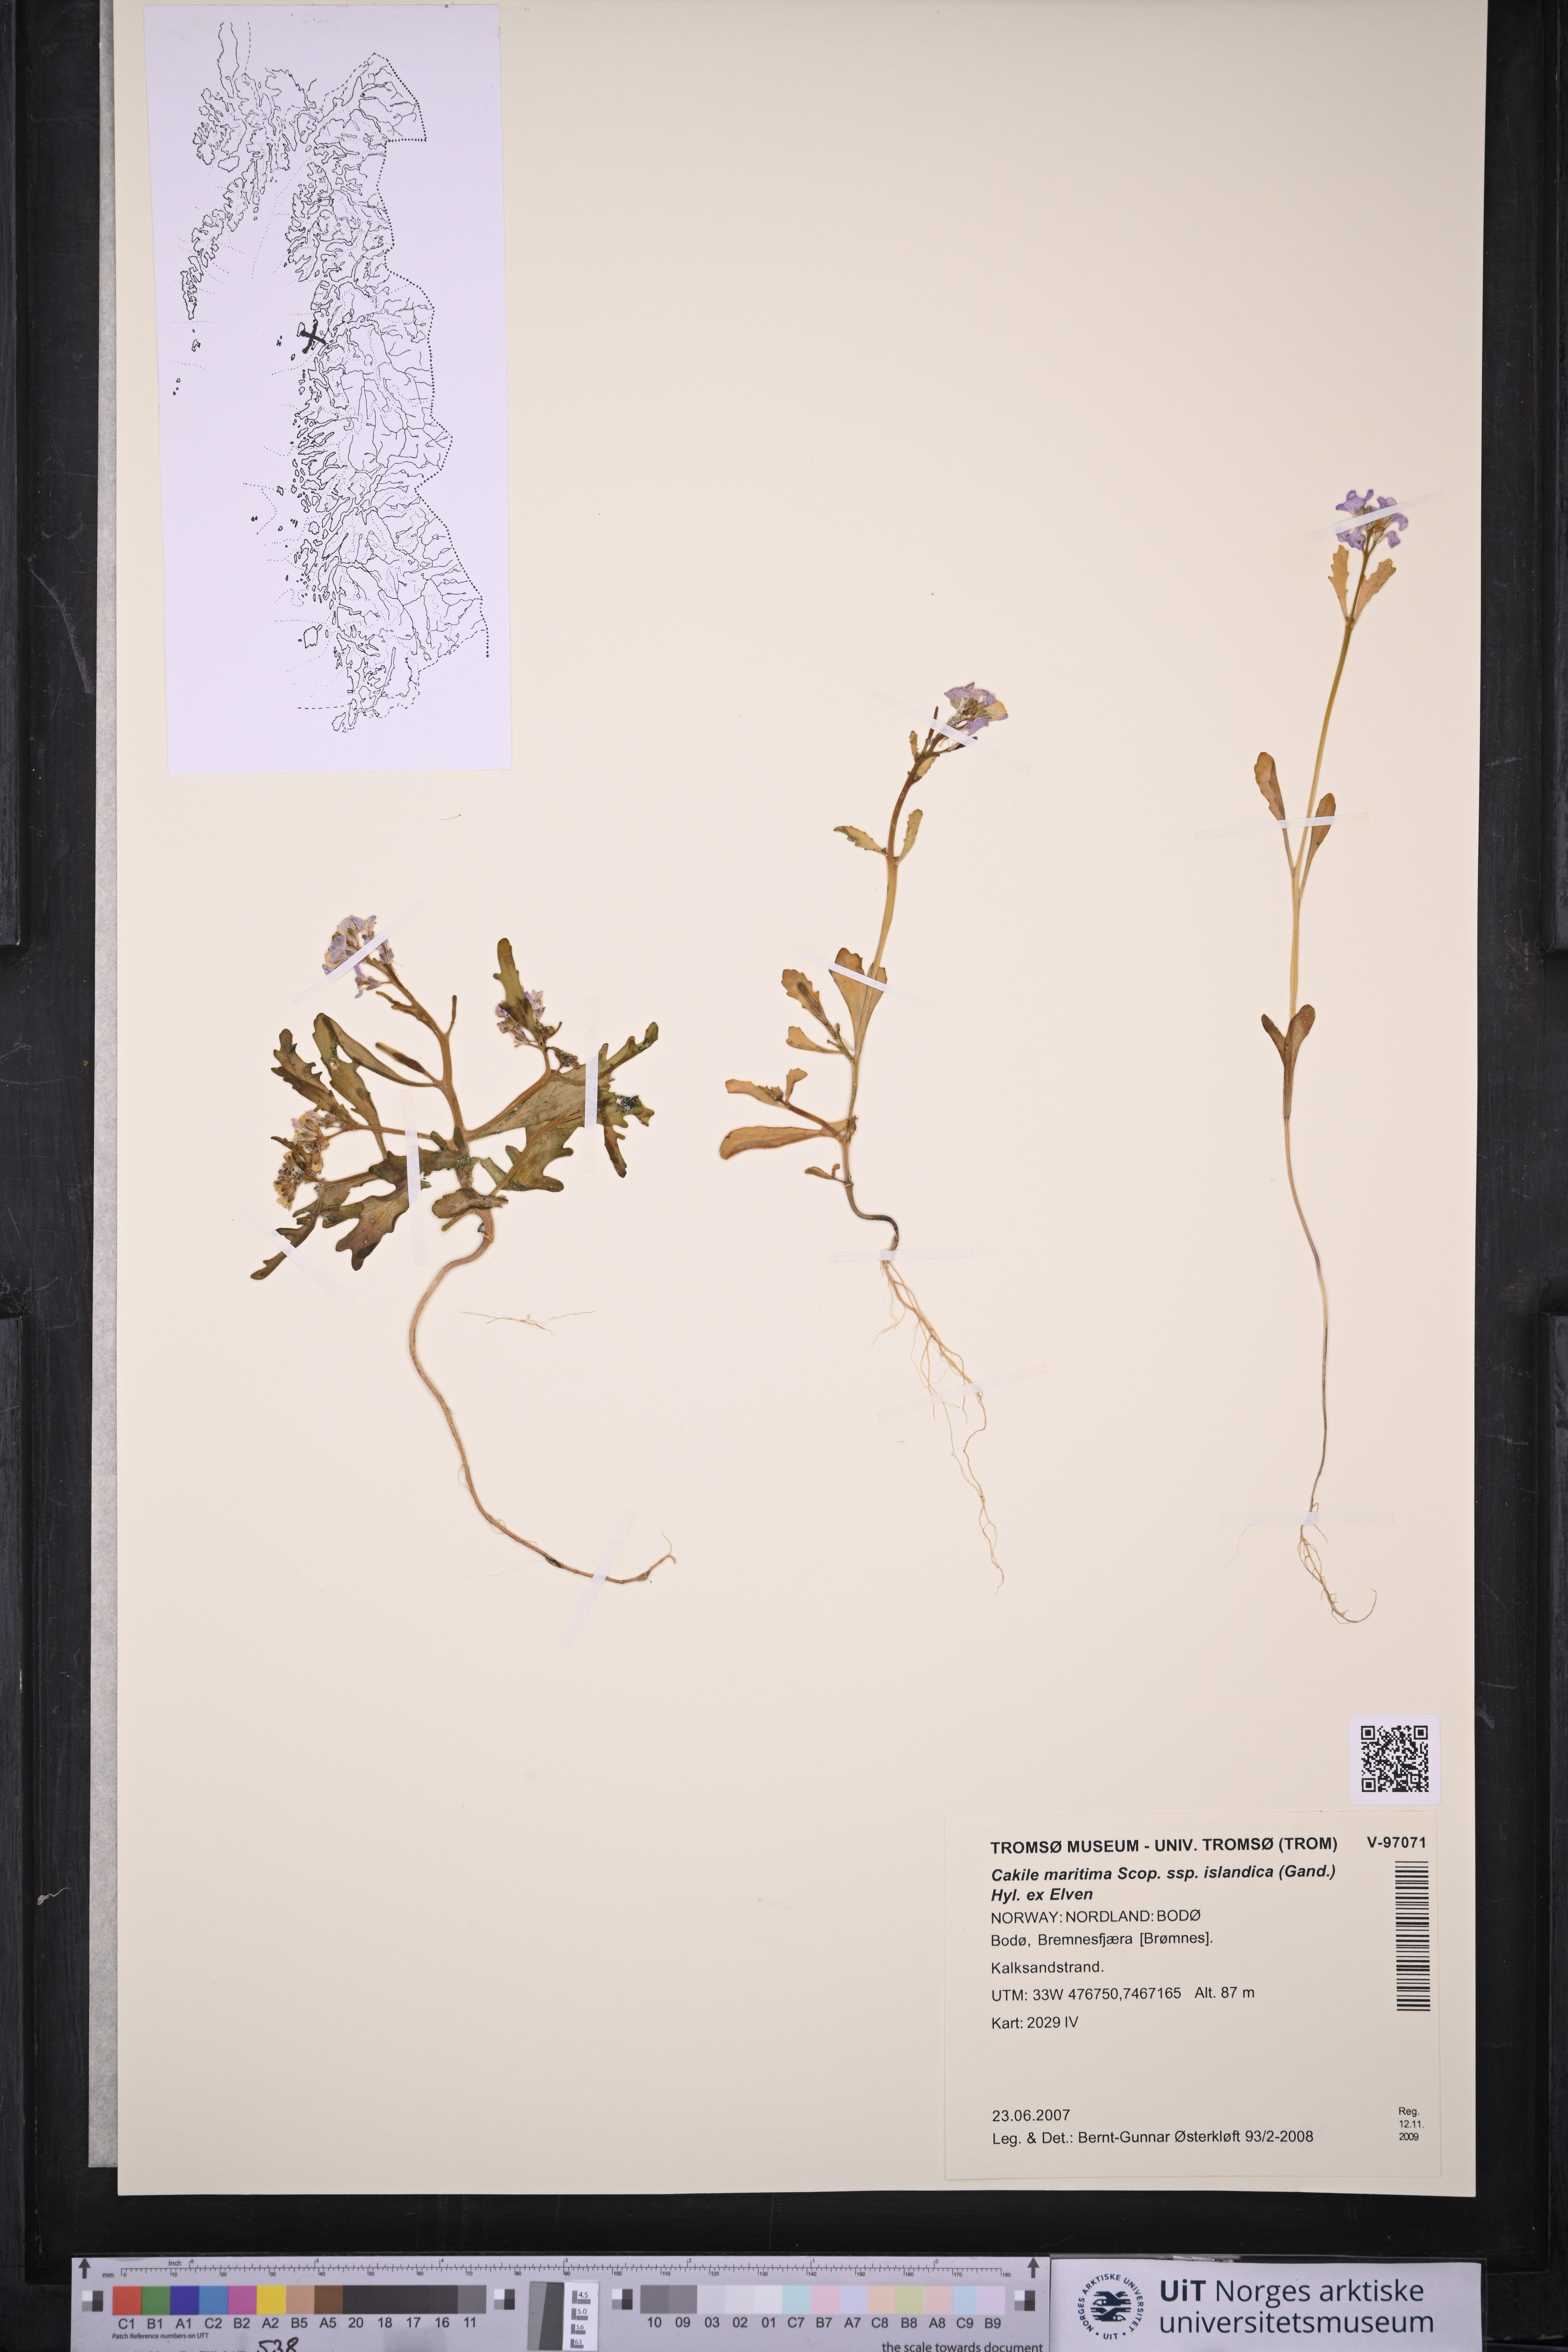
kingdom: Plantae
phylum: Tracheophyta
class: Magnoliopsida
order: Brassicales
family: Brassicaceae
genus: Cakile
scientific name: Cakile arctica
